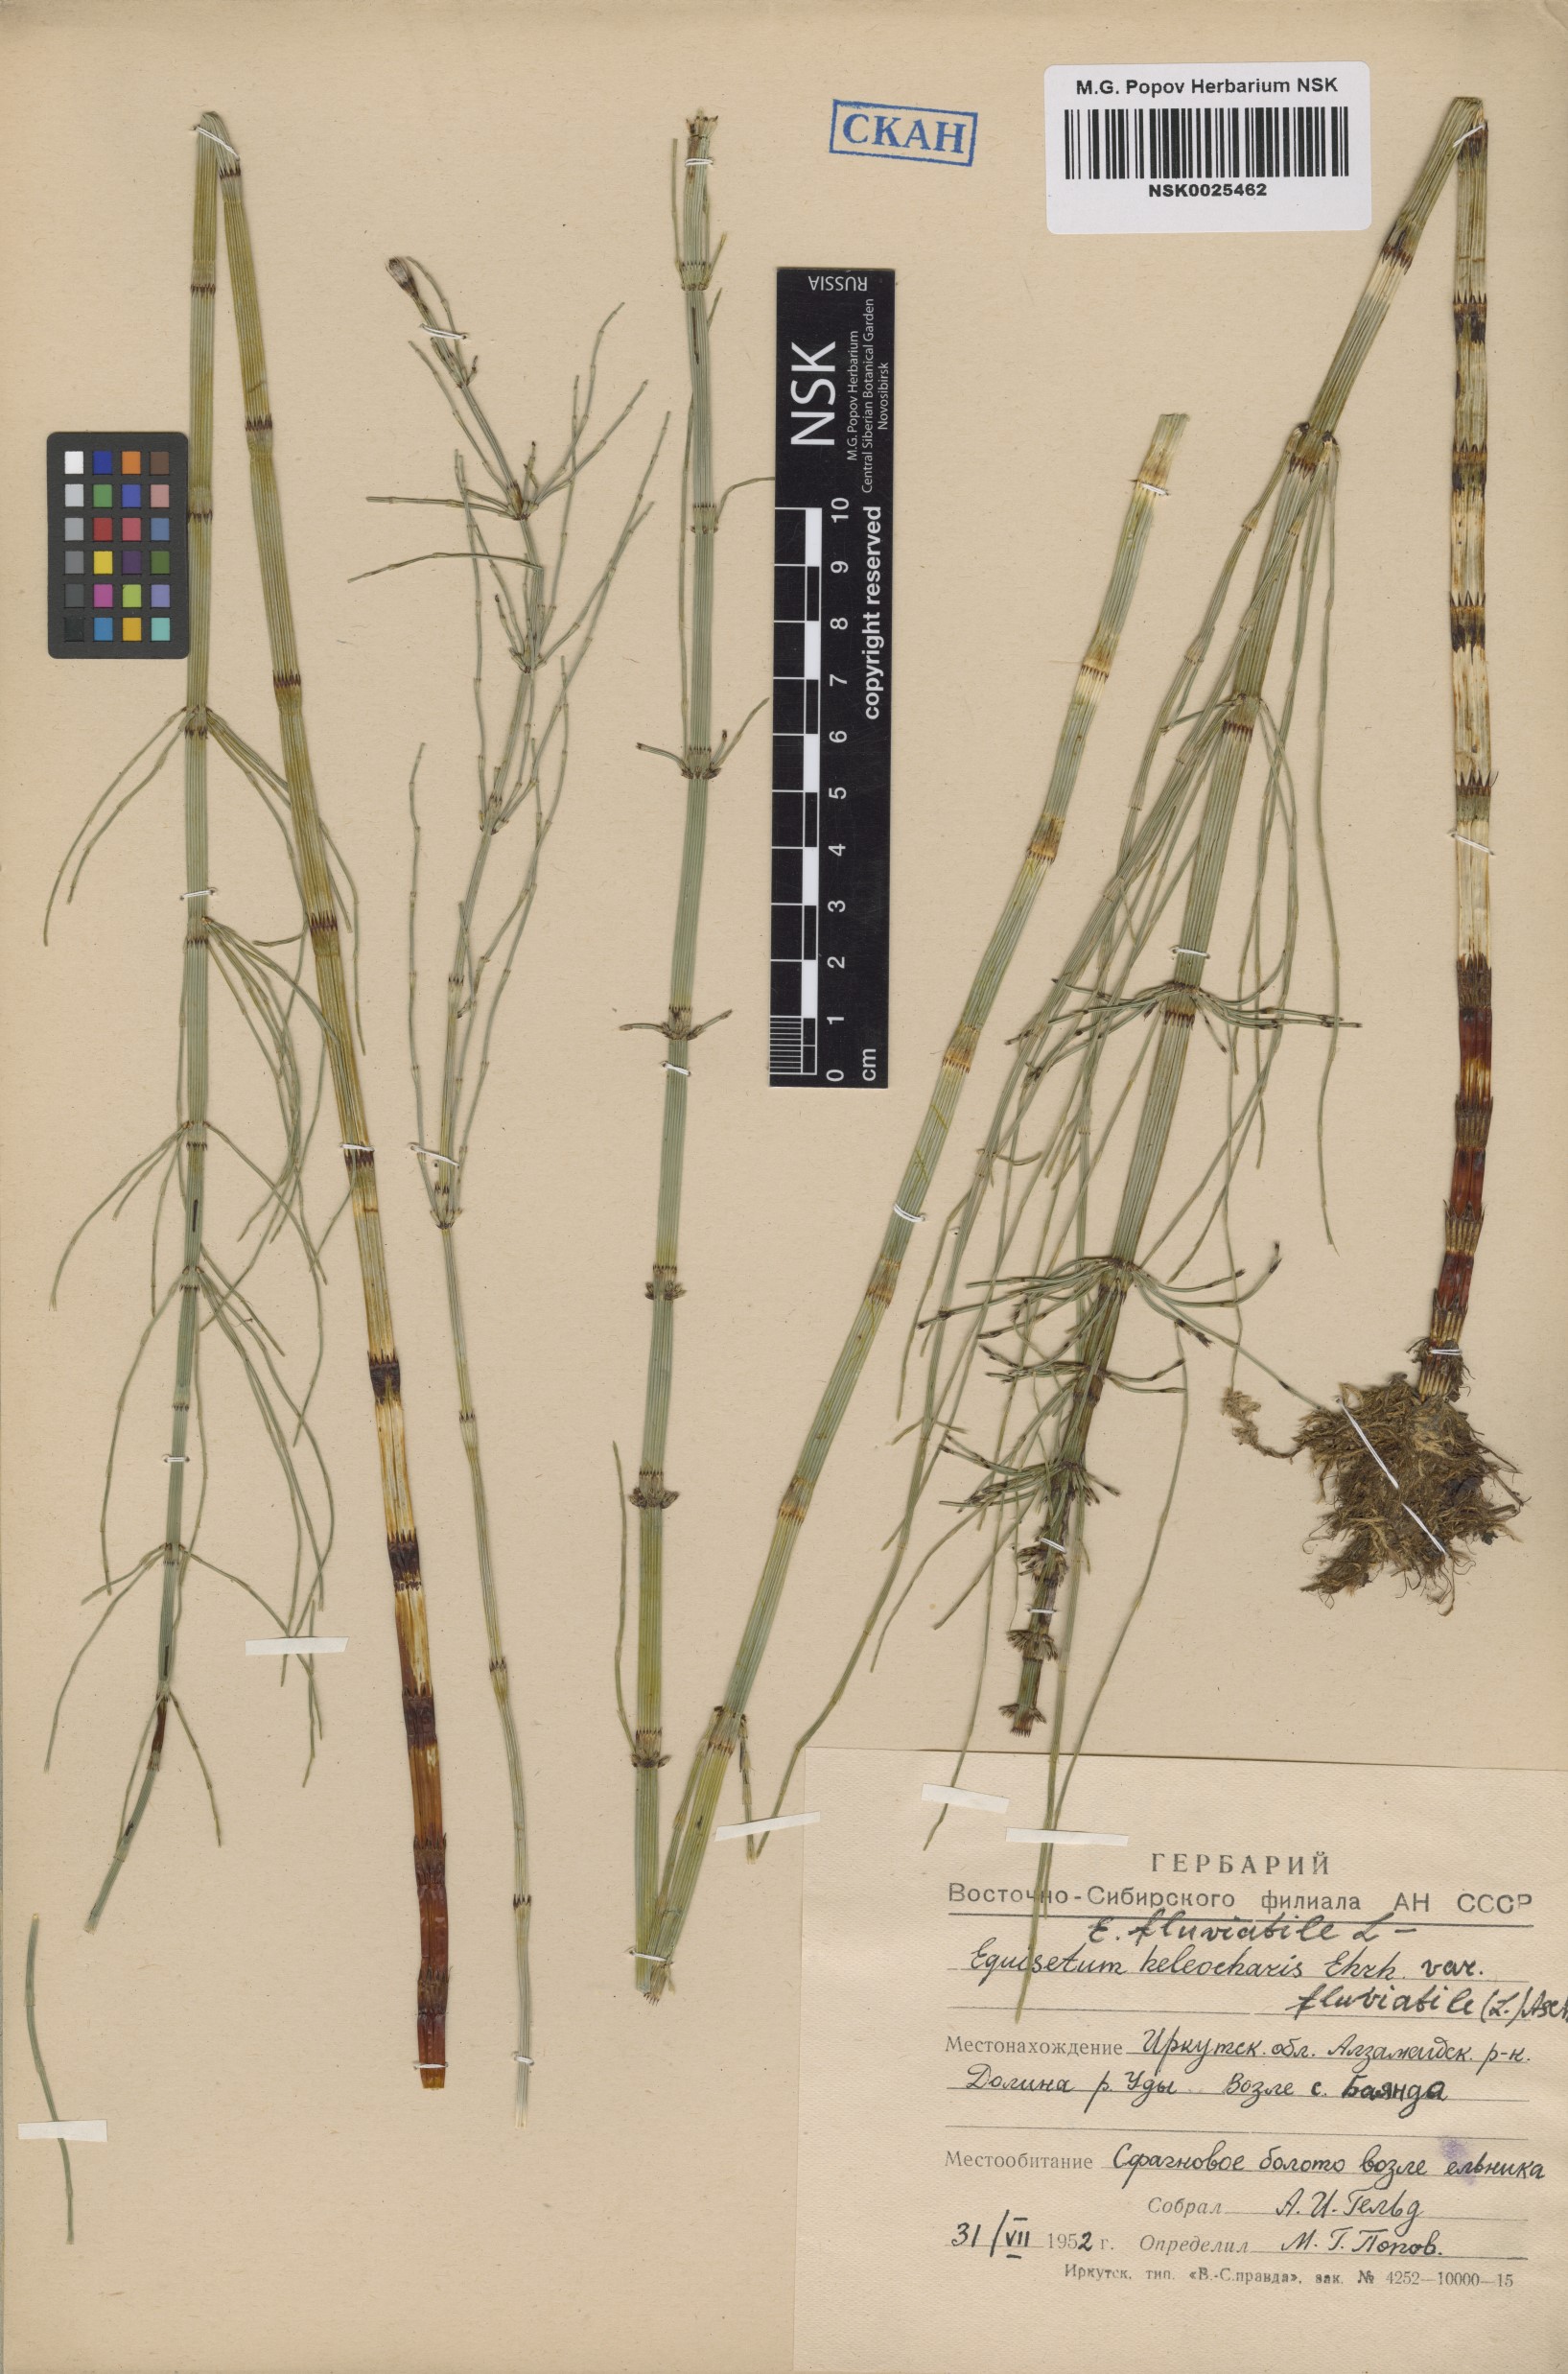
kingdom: Plantae
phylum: Tracheophyta
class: Polypodiopsida
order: Equisetales
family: Equisetaceae
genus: Equisetum
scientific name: Equisetum fluviatile
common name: Water horsetail
